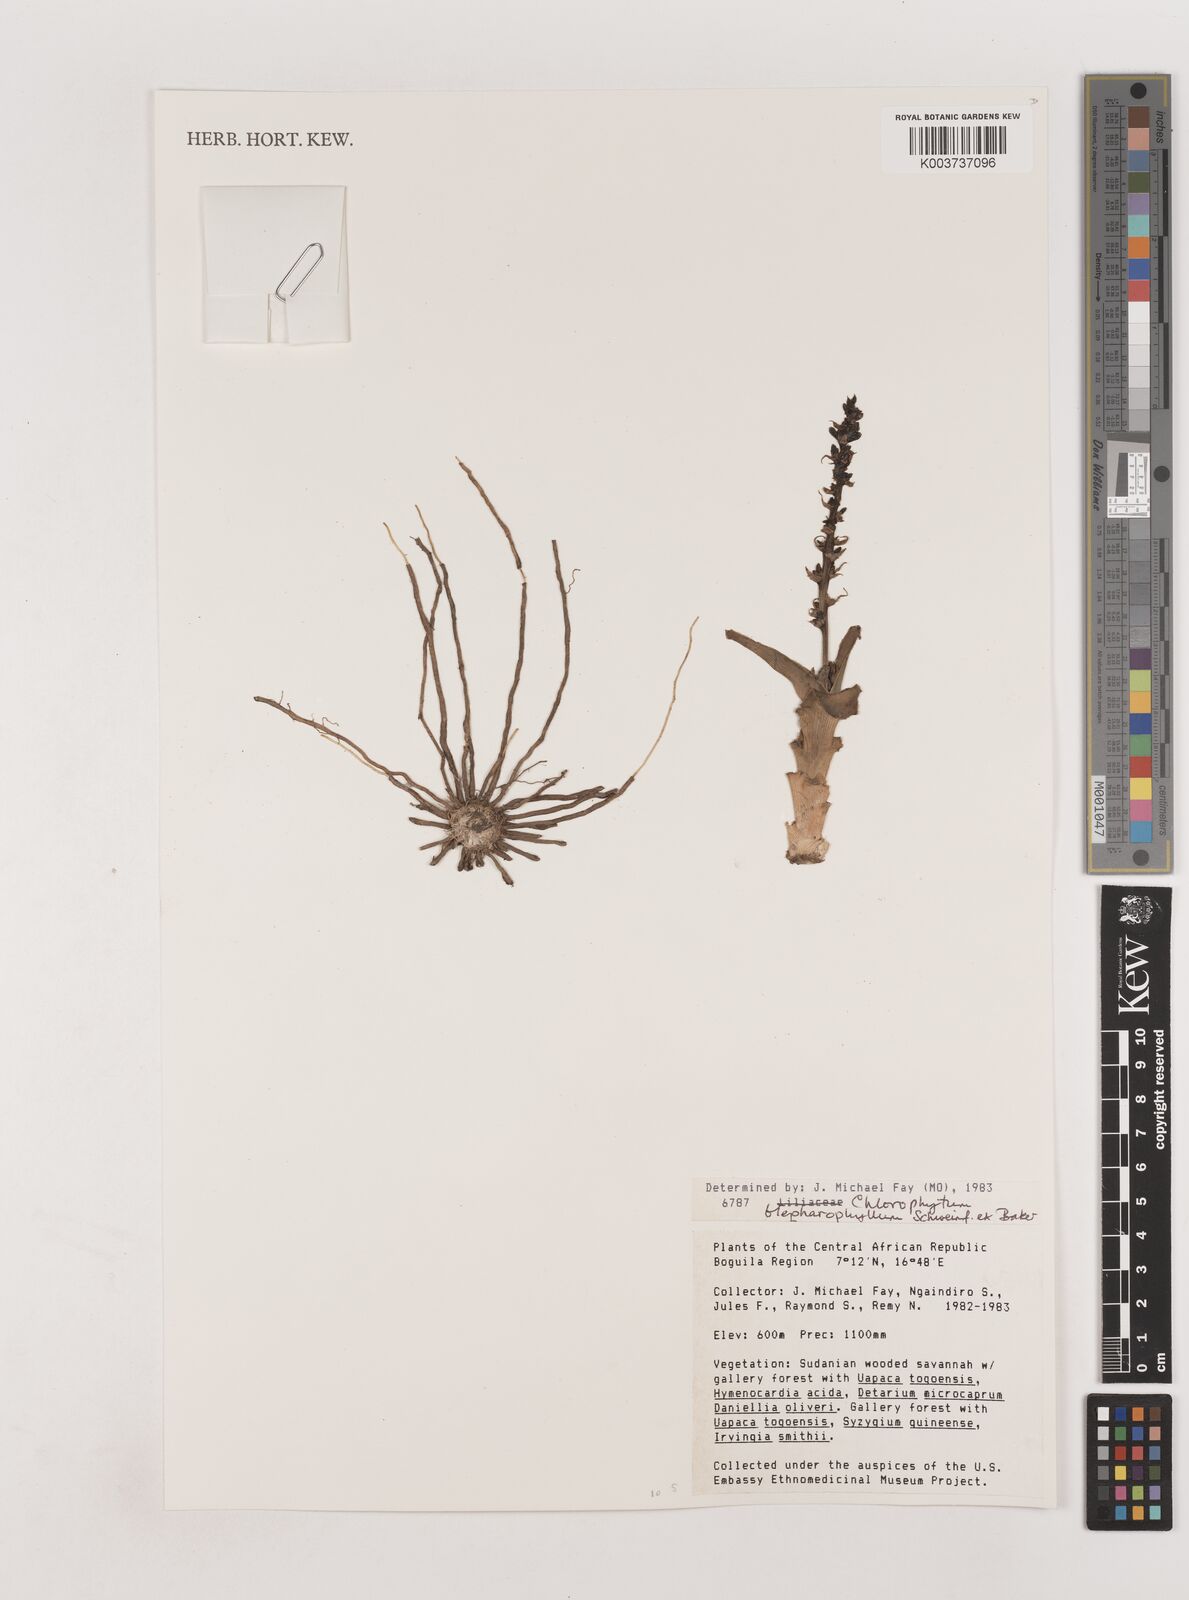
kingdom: Plantae
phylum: Tracheophyta
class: Liliopsida
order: Asparagales
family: Asparagaceae
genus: Chlorophytum
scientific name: Chlorophytum blepharophyllum
